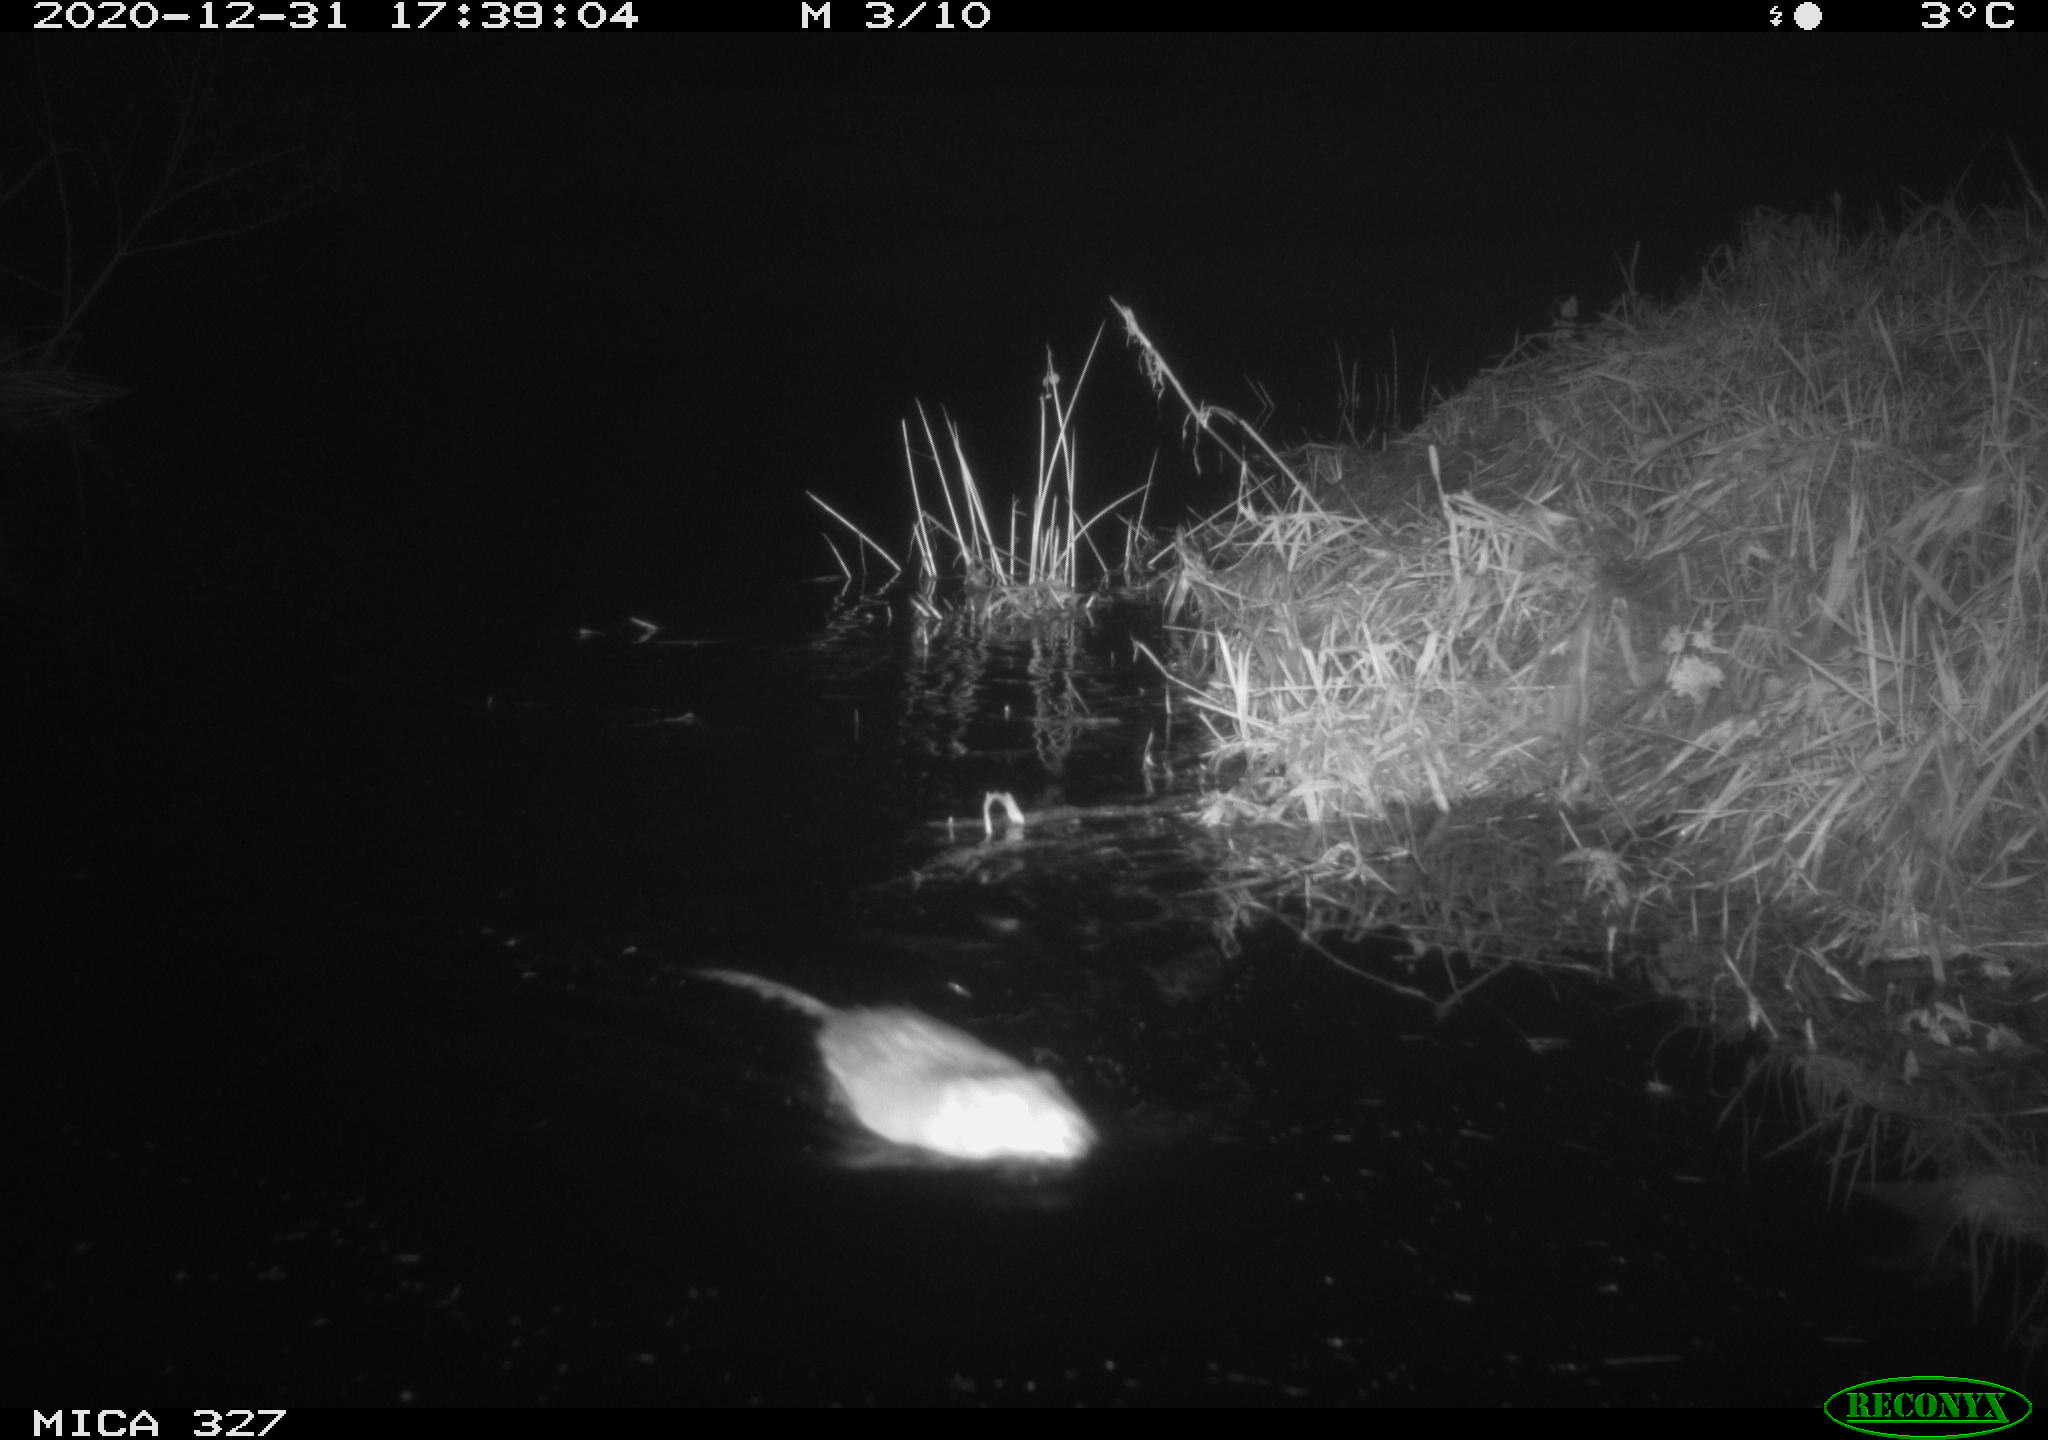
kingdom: Animalia
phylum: Chordata
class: Mammalia
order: Rodentia
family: Cricetidae
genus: Ondatra
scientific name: Ondatra zibethicus
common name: Muskrat
